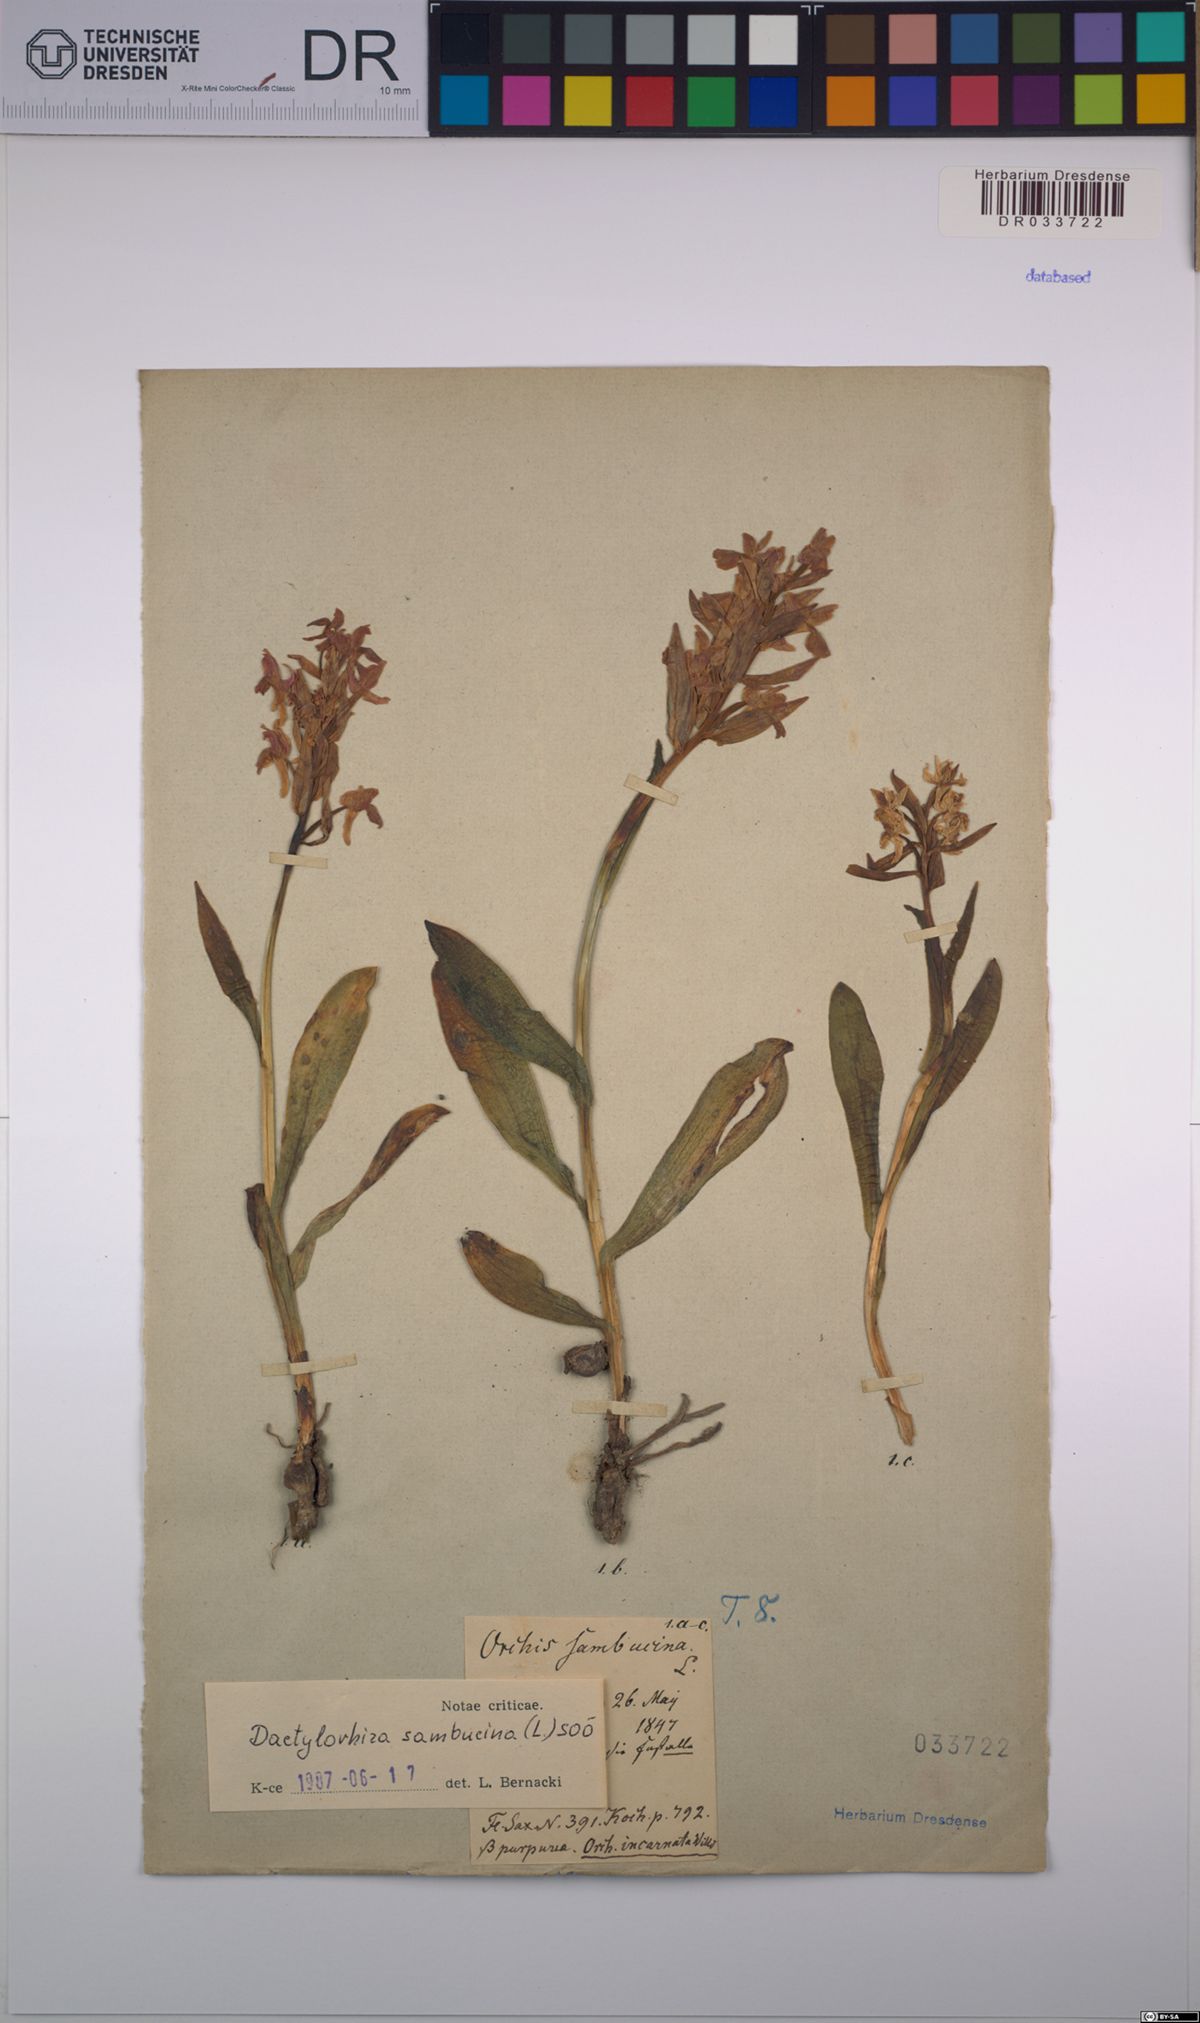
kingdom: Plantae
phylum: Tracheophyta
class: Liliopsida
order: Asparagales
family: Orchidaceae
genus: Dactylorhiza
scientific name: Dactylorhiza sambucina
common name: Elder-flowered orchid
